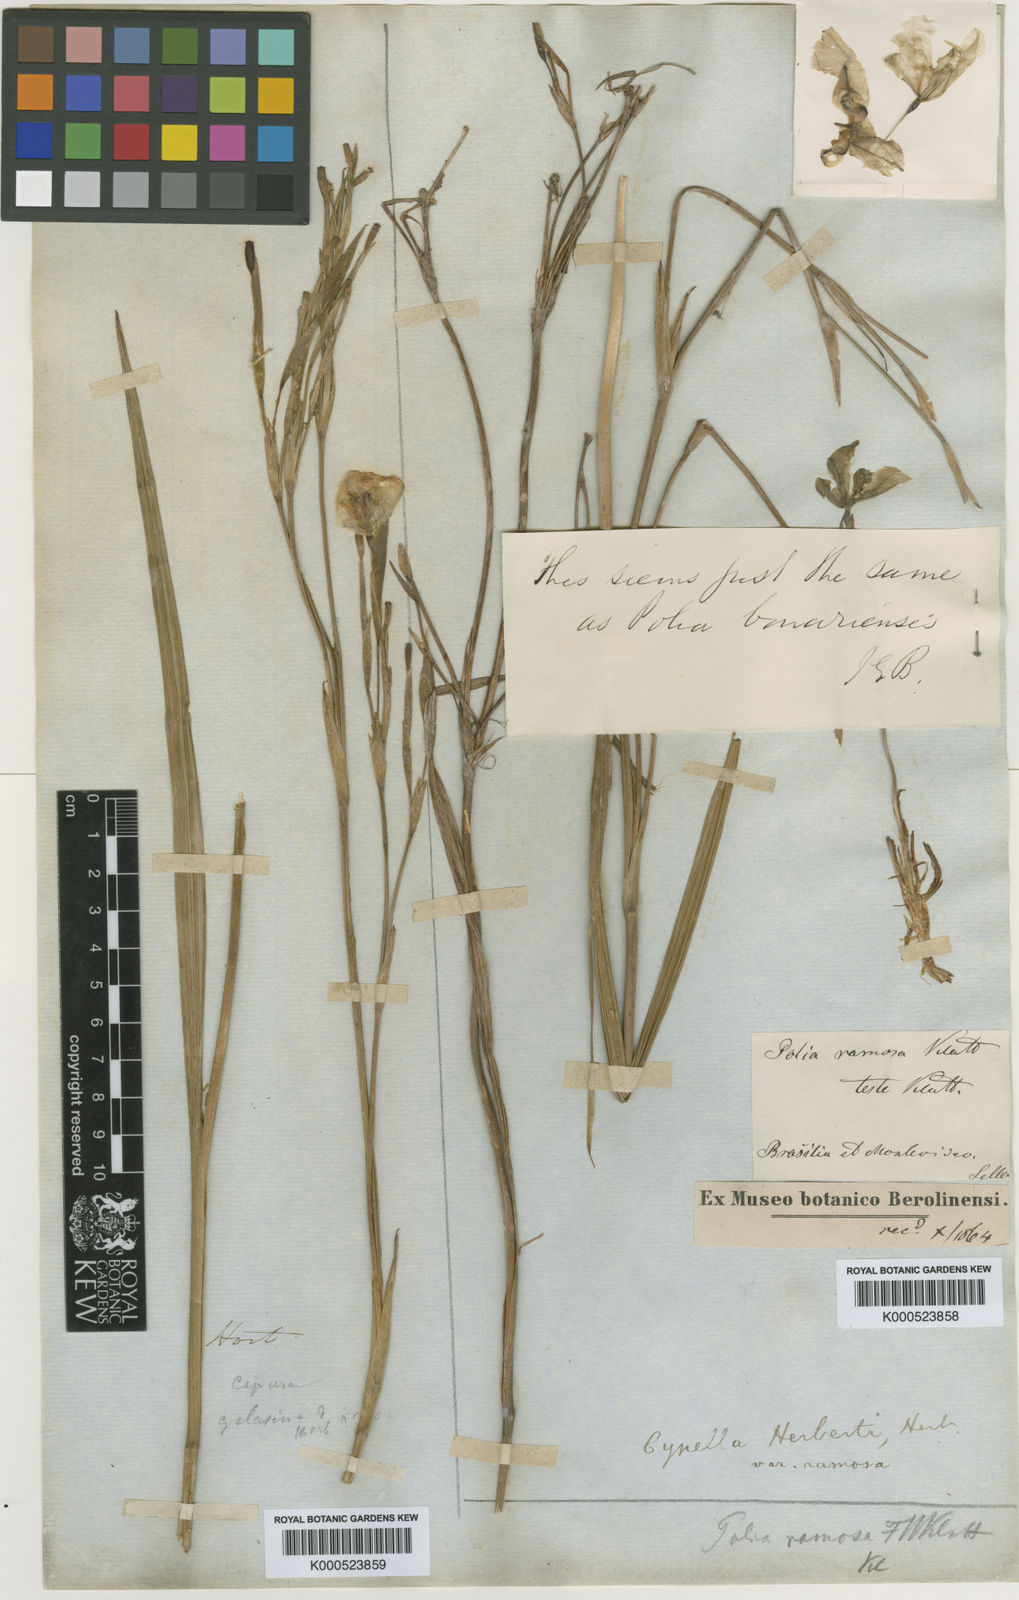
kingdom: Plantae
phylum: Tracheophyta
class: Liliopsida
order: Asparagales
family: Iridaceae
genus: Cypella
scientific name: Cypella herbertii
